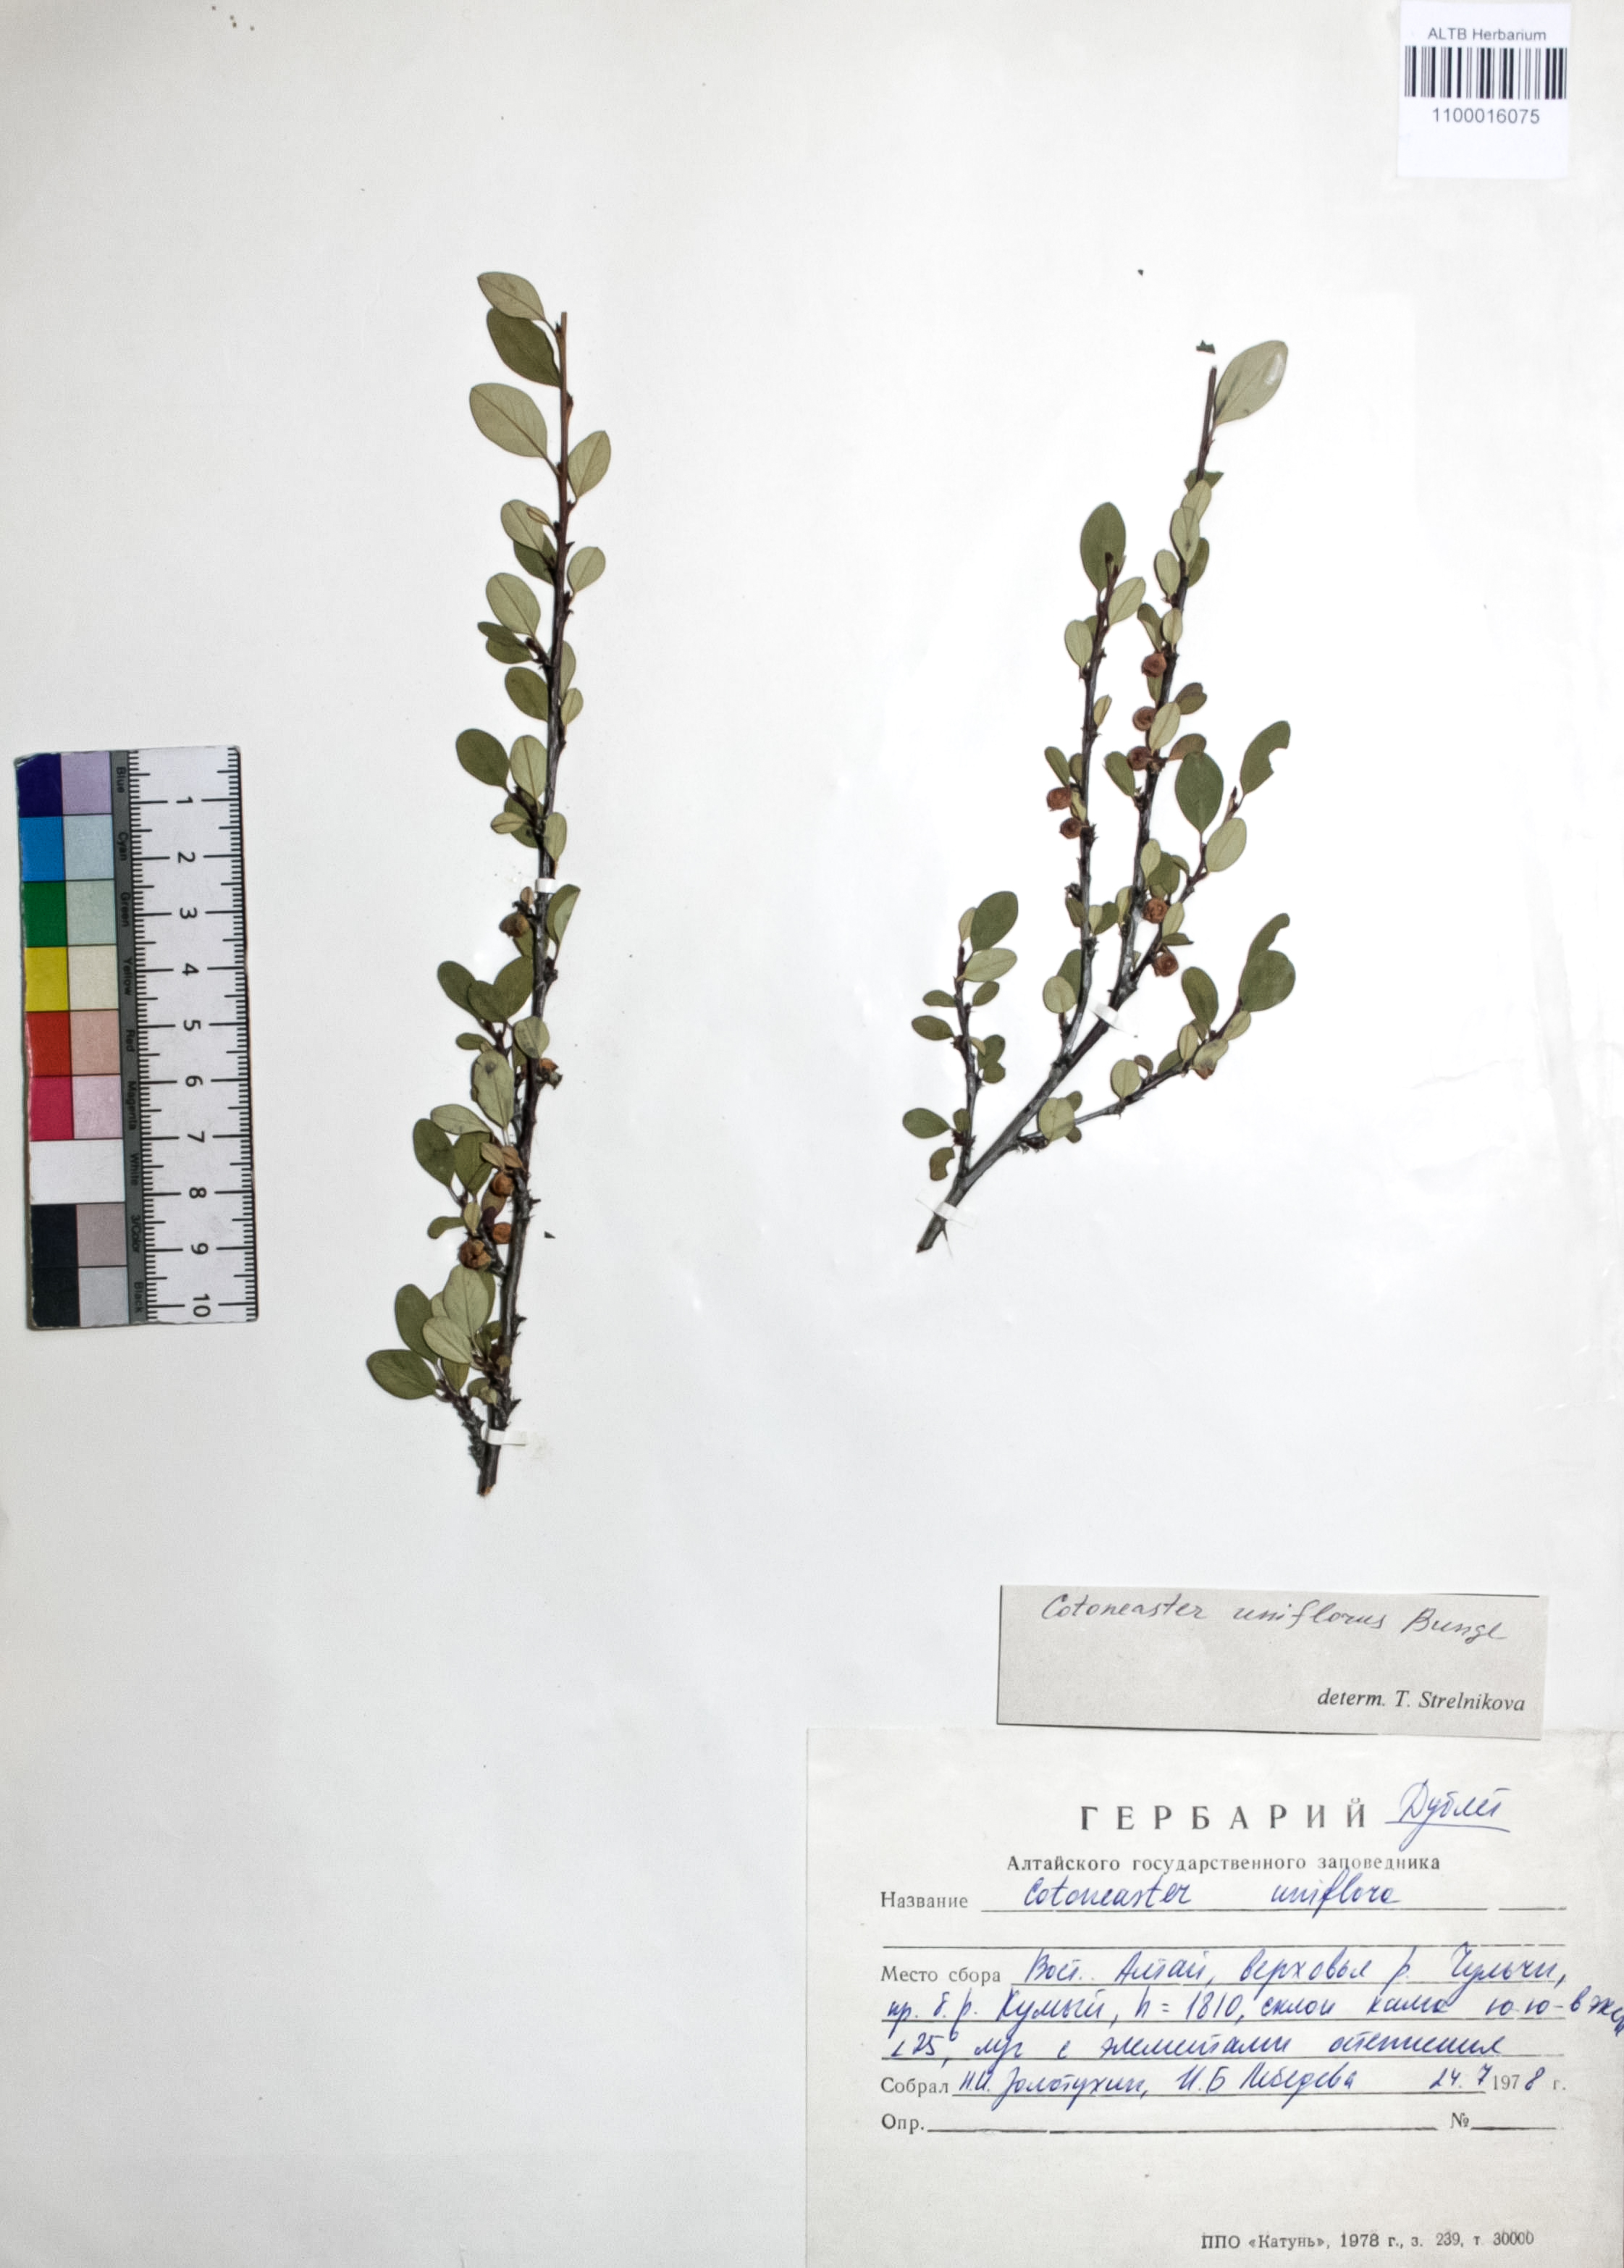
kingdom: Plantae
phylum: Tracheophyta
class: Magnoliopsida
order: Rosales
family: Rosaceae
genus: Cotoneaster
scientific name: Cotoneaster uniflorus
